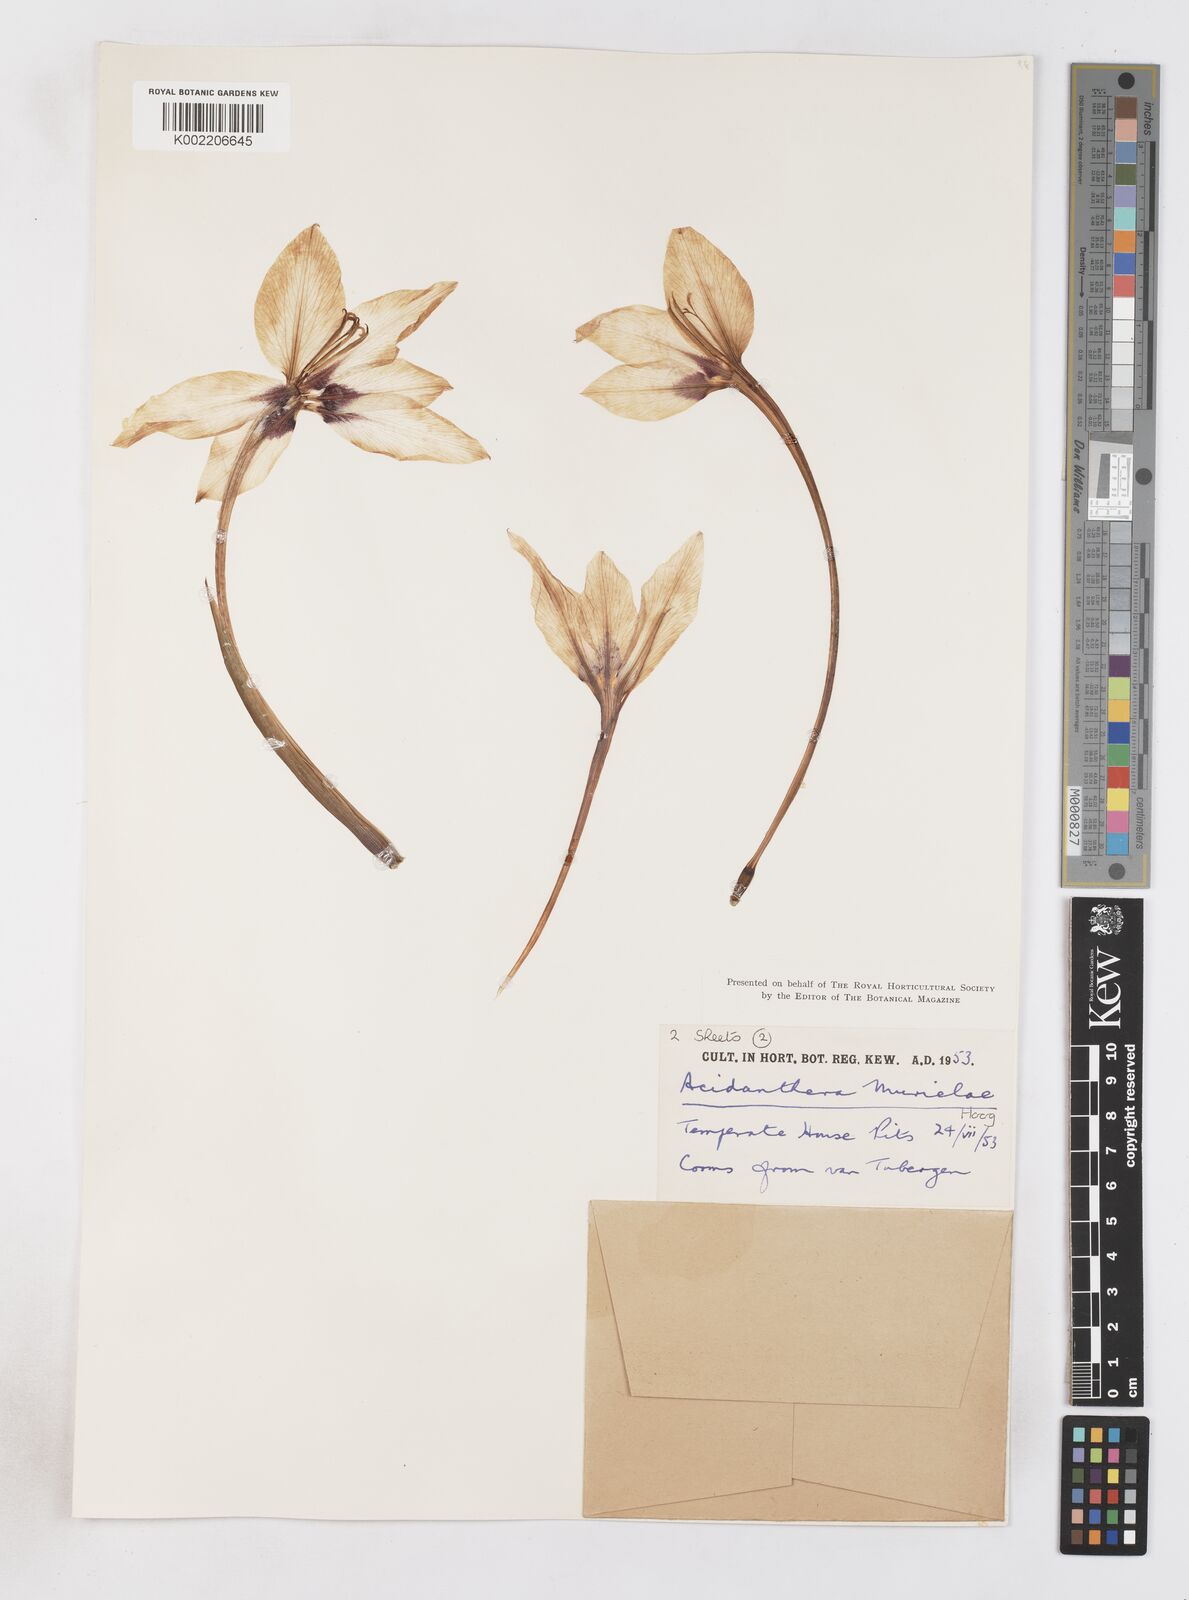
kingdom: Plantae
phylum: Tracheophyta
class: Liliopsida
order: Asparagales
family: Iridaceae
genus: Gladiolus
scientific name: Gladiolus murielae
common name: Acidanthera
